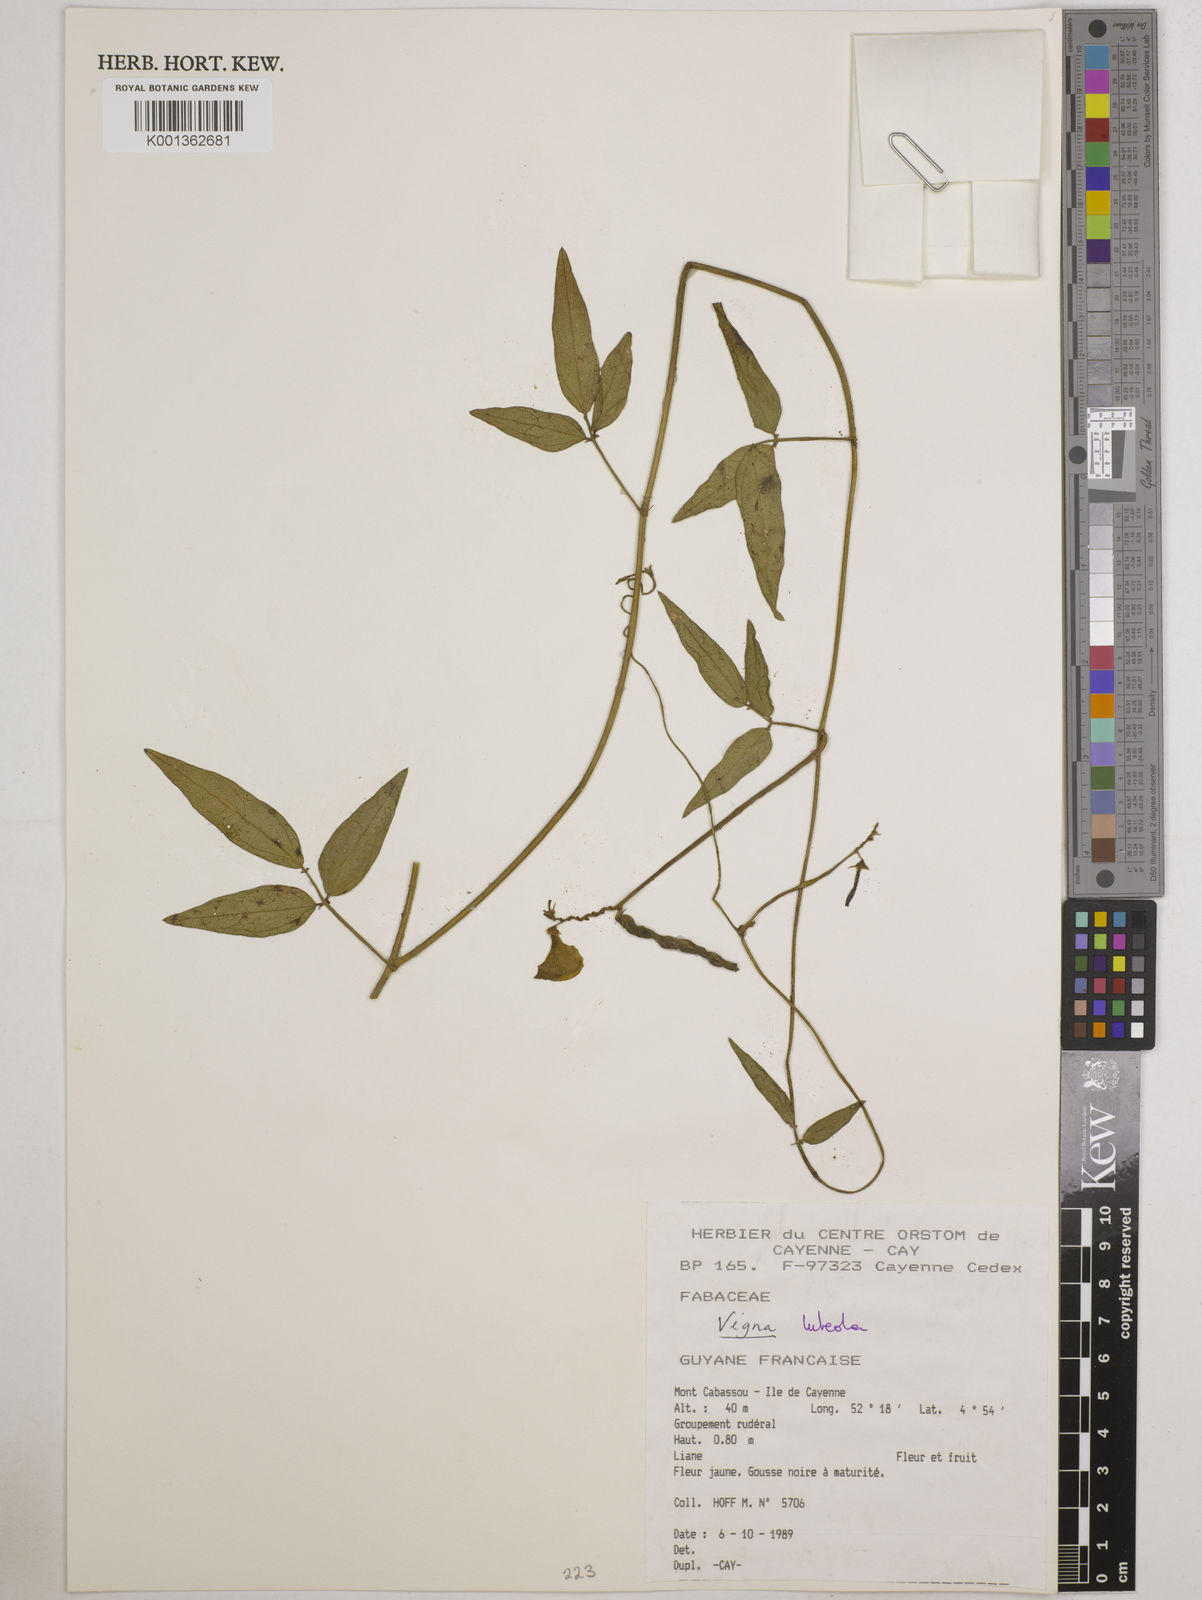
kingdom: Plantae
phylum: Tracheophyta
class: Magnoliopsida
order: Fabales
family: Fabaceae
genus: Vigna
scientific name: Vigna luteola
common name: Hairypod cowpea
